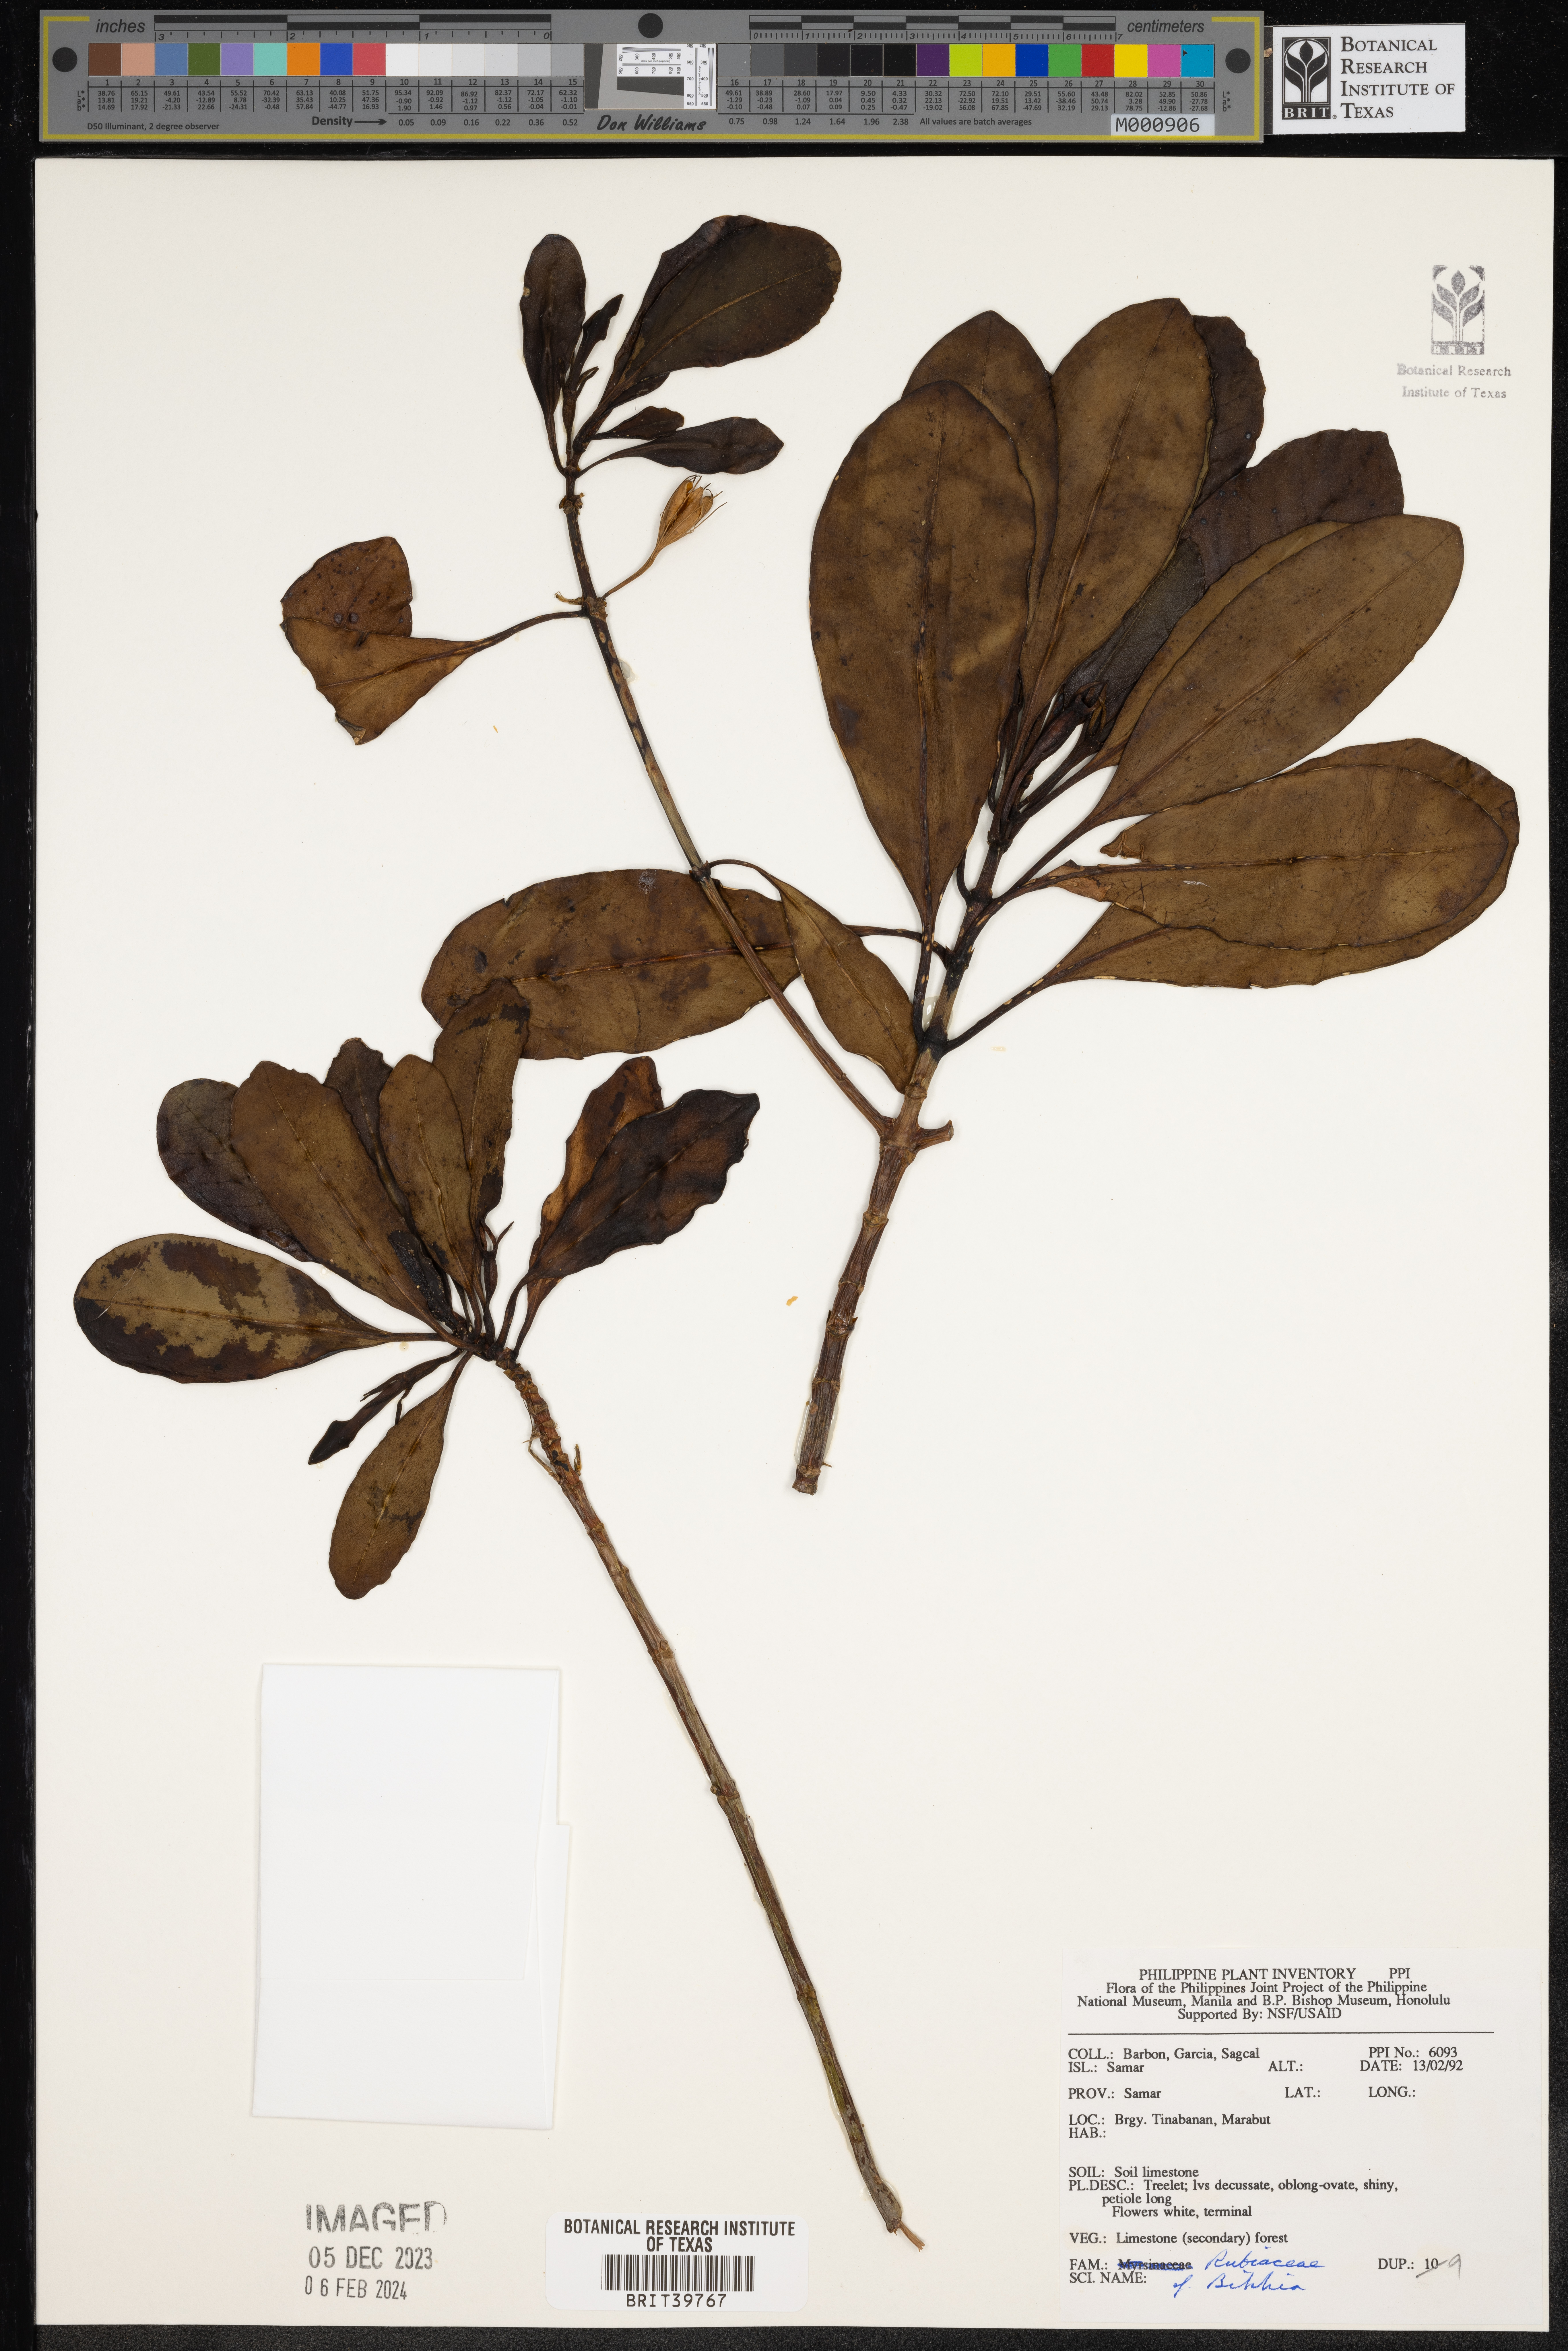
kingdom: Plantae
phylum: Tracheophyta
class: Magnoliopsida
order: Gentianales
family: Rubiaceae
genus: Bikkia
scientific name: Bikkia
